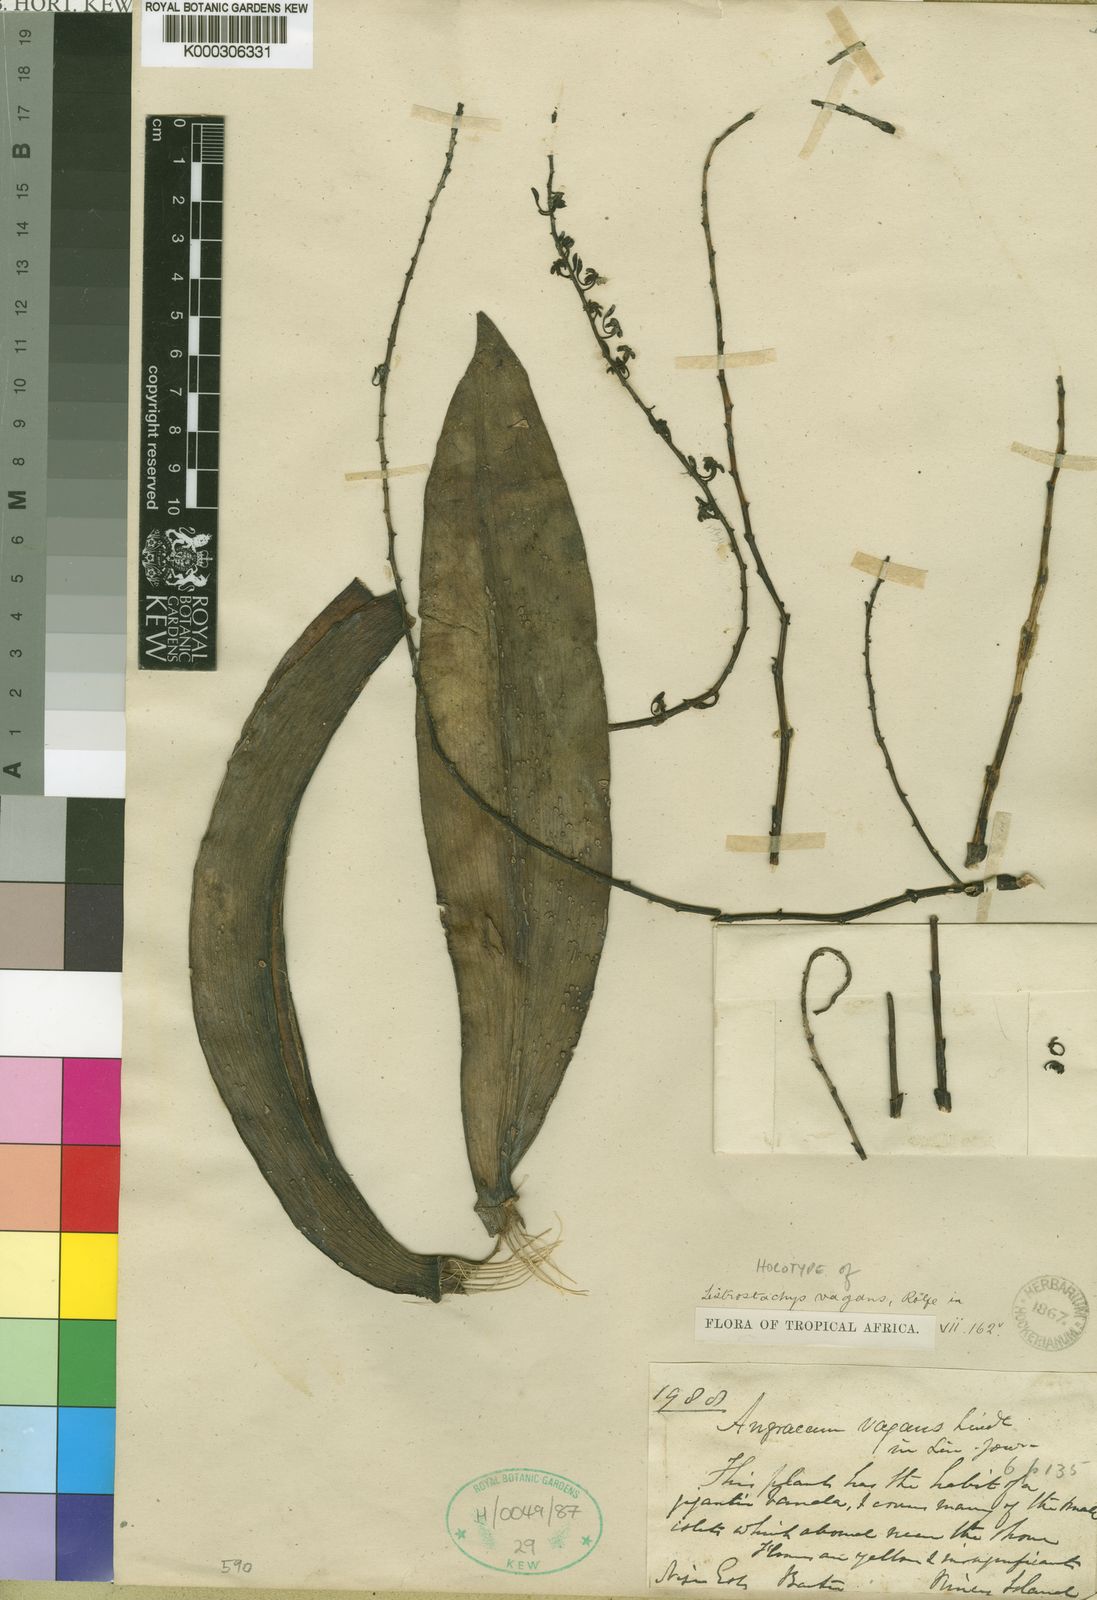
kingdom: Plantae
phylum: Tracheophyta
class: Liliopsida
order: Asparagales
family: Orchidaceae
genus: Diaphananthe
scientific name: Diaphananthe vagans
